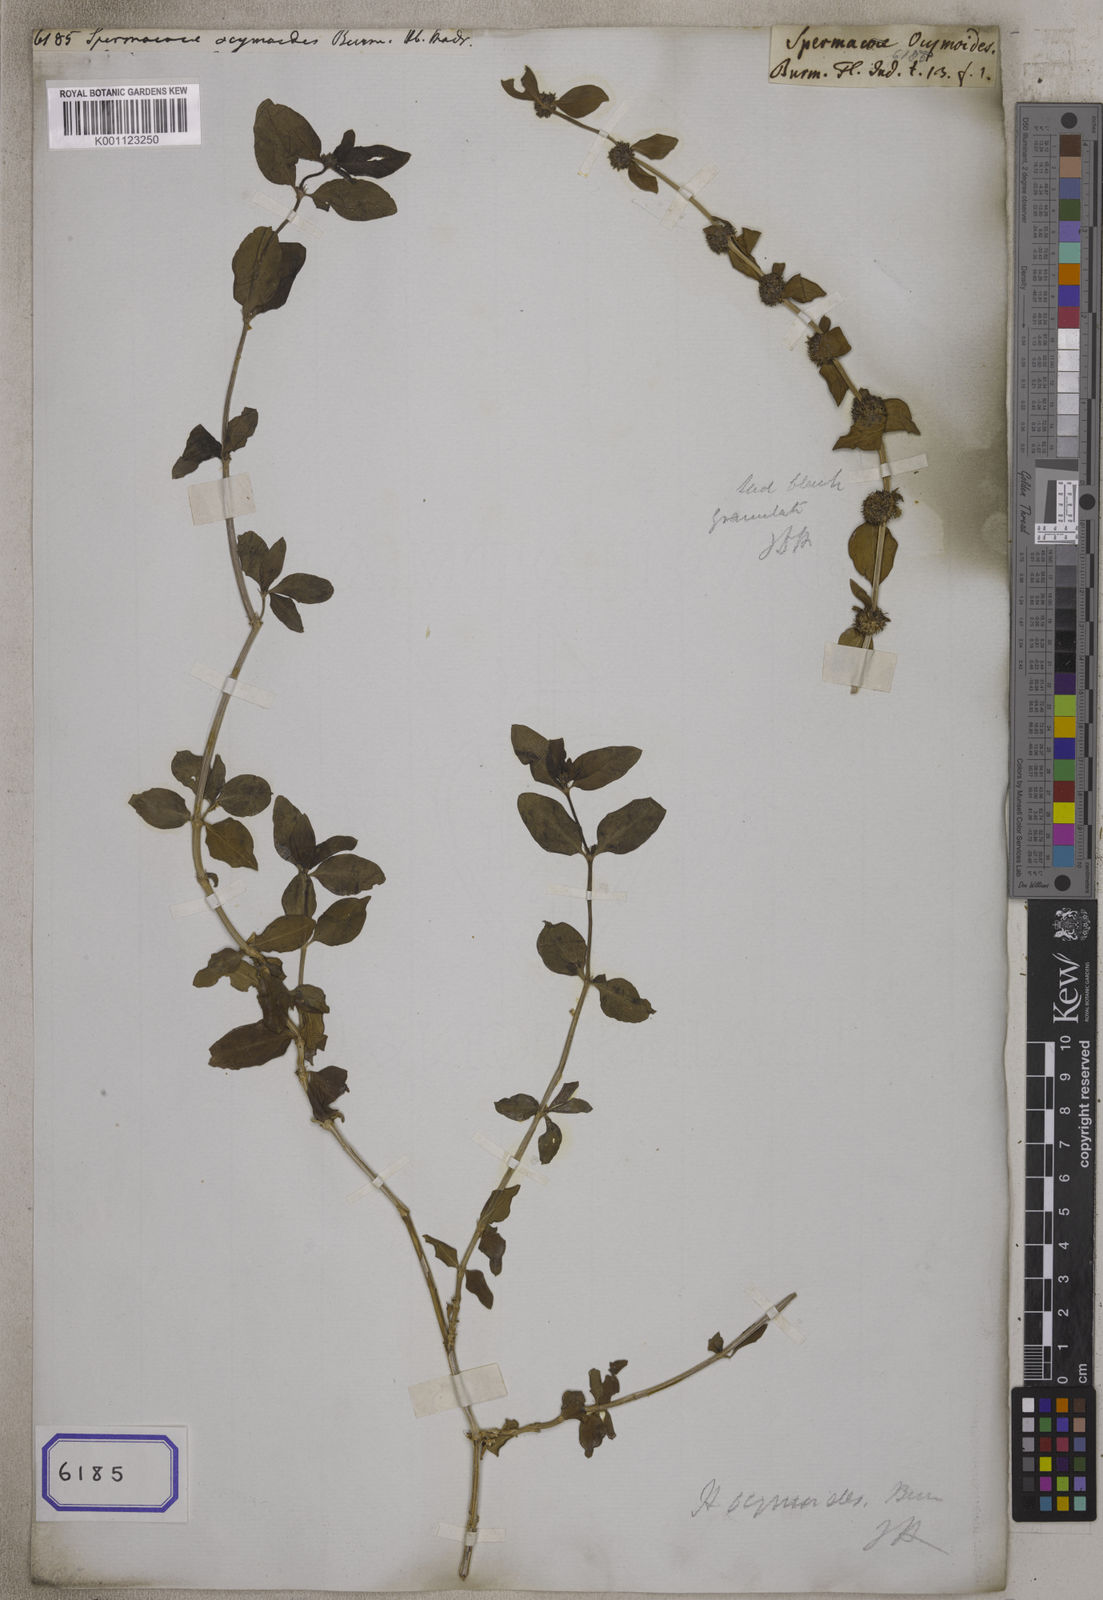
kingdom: Plantae
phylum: Tracheophyta
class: Magnoliopsida
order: Gentianales
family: Rubiaceae
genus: Spermacoce
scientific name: Spermacoce
